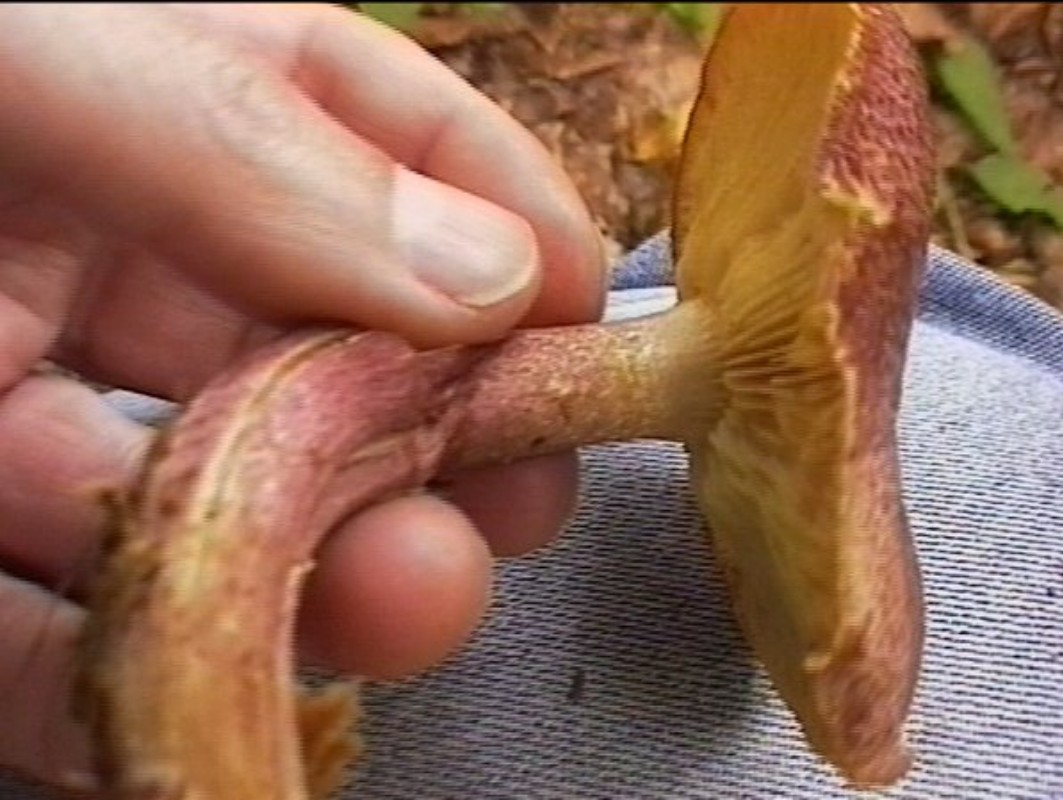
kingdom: Fungi
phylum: Basidiomycota
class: Agaricomycetes
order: Agaricales
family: Tricholomataceae
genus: Tricholomopsis
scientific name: Tricholomopsis rutilans
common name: purpur-væbnerhat
